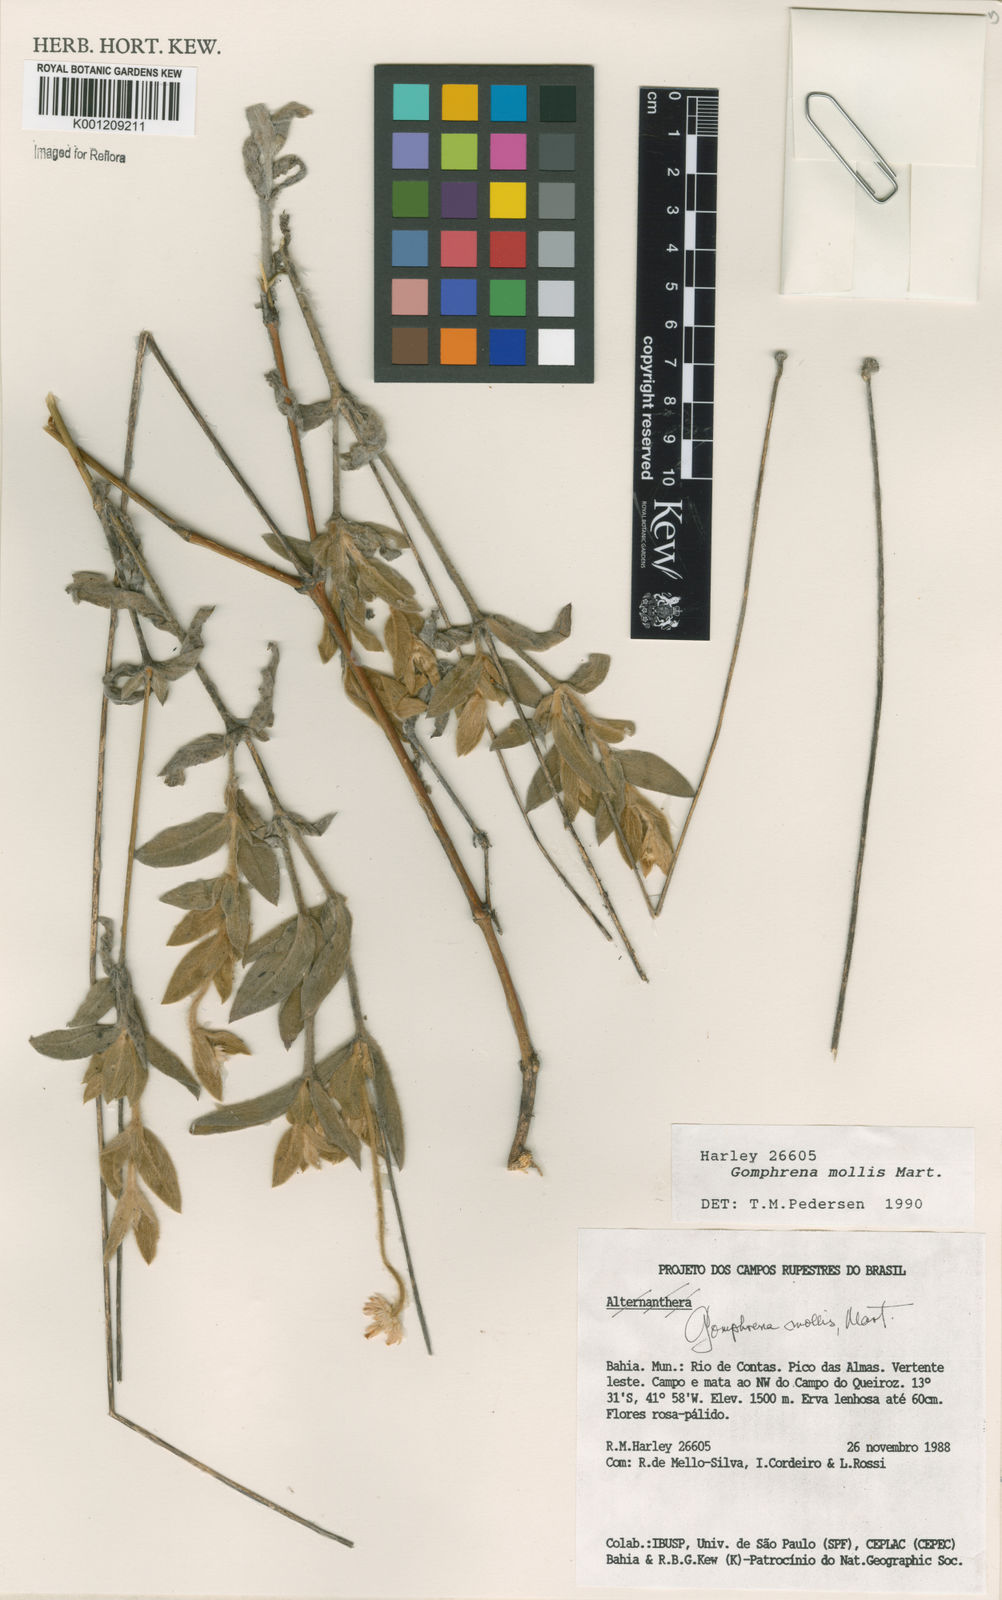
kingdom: Plantae
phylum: Tracheophyta
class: Magnoliopsida
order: Caryophyllales
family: Amaranthaceae
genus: Gomphrena
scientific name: Gomphrena mollis
